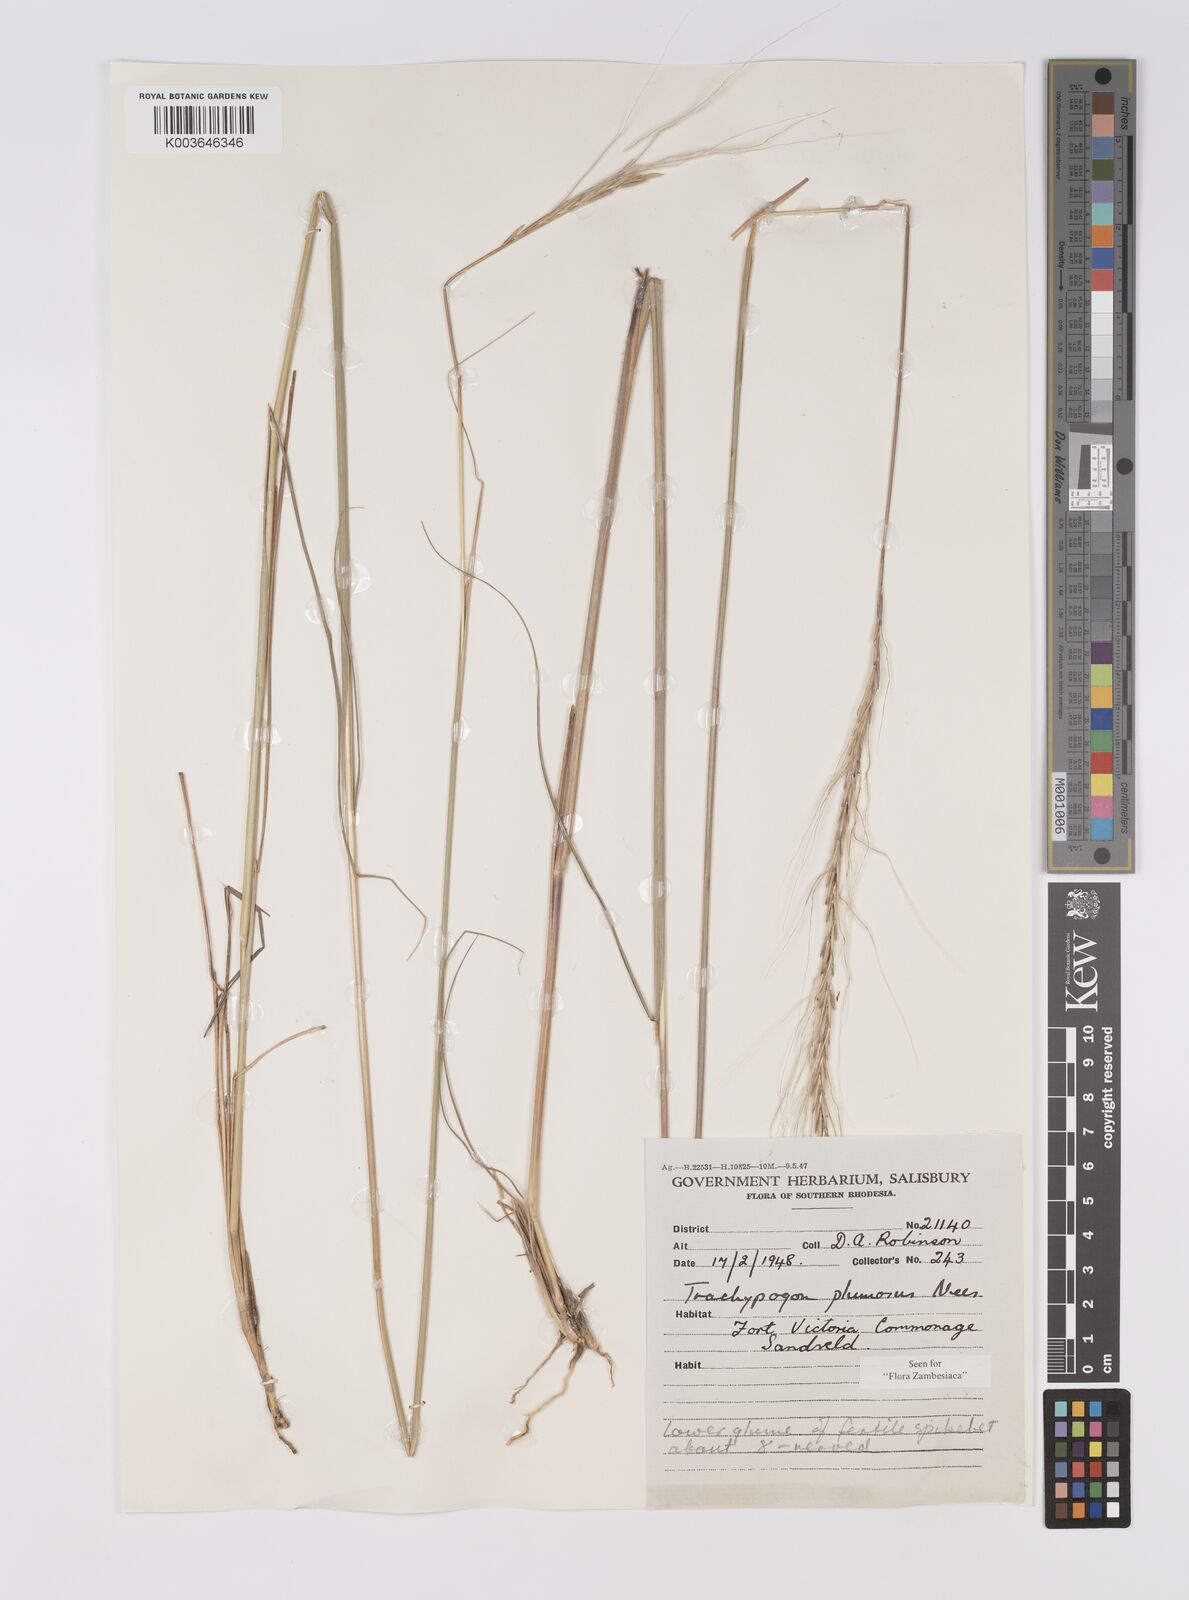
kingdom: Plantae
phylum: Tracheophyta
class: Liliopsida
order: Poales
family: Poaceae
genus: Trachypogon
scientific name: Trachypogon spicatus
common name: Crinkle-awn
